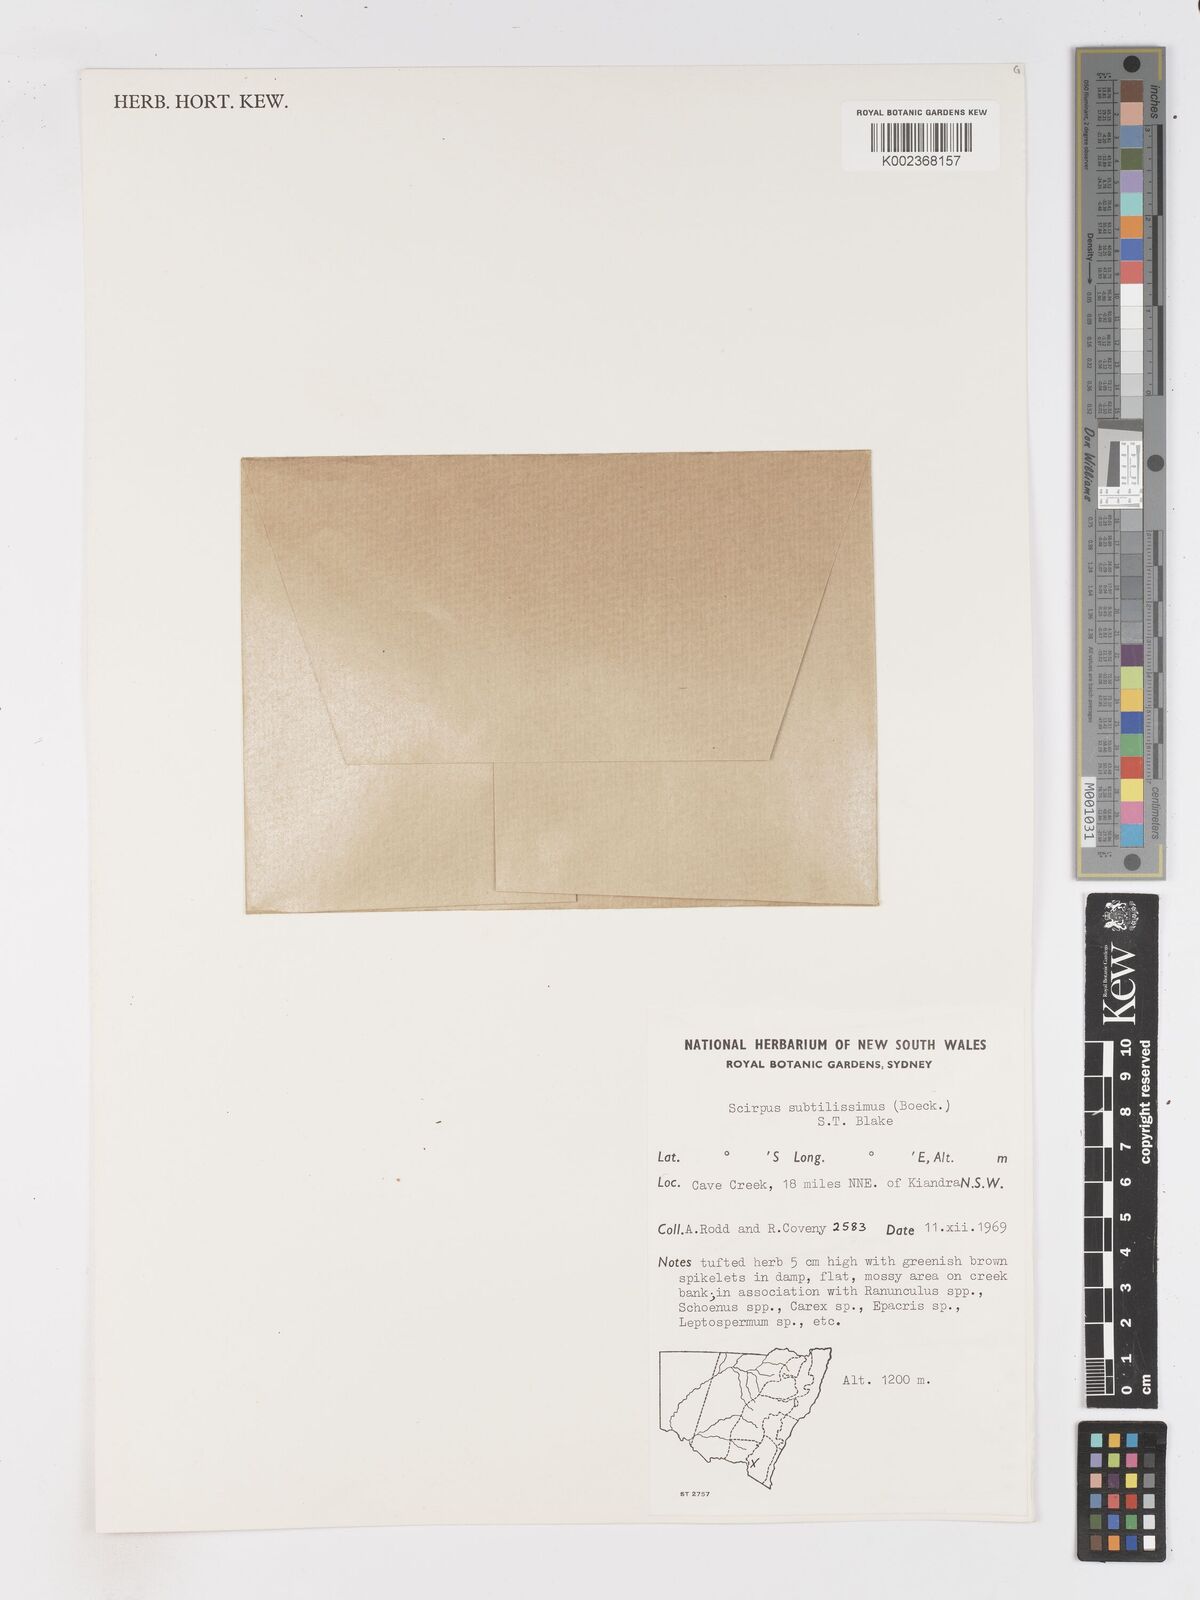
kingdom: Plantae
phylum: Tracheophyta
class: Liliopsida
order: Poales
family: Cyperaceae
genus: Isolepis
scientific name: Isolepis subtilissima
